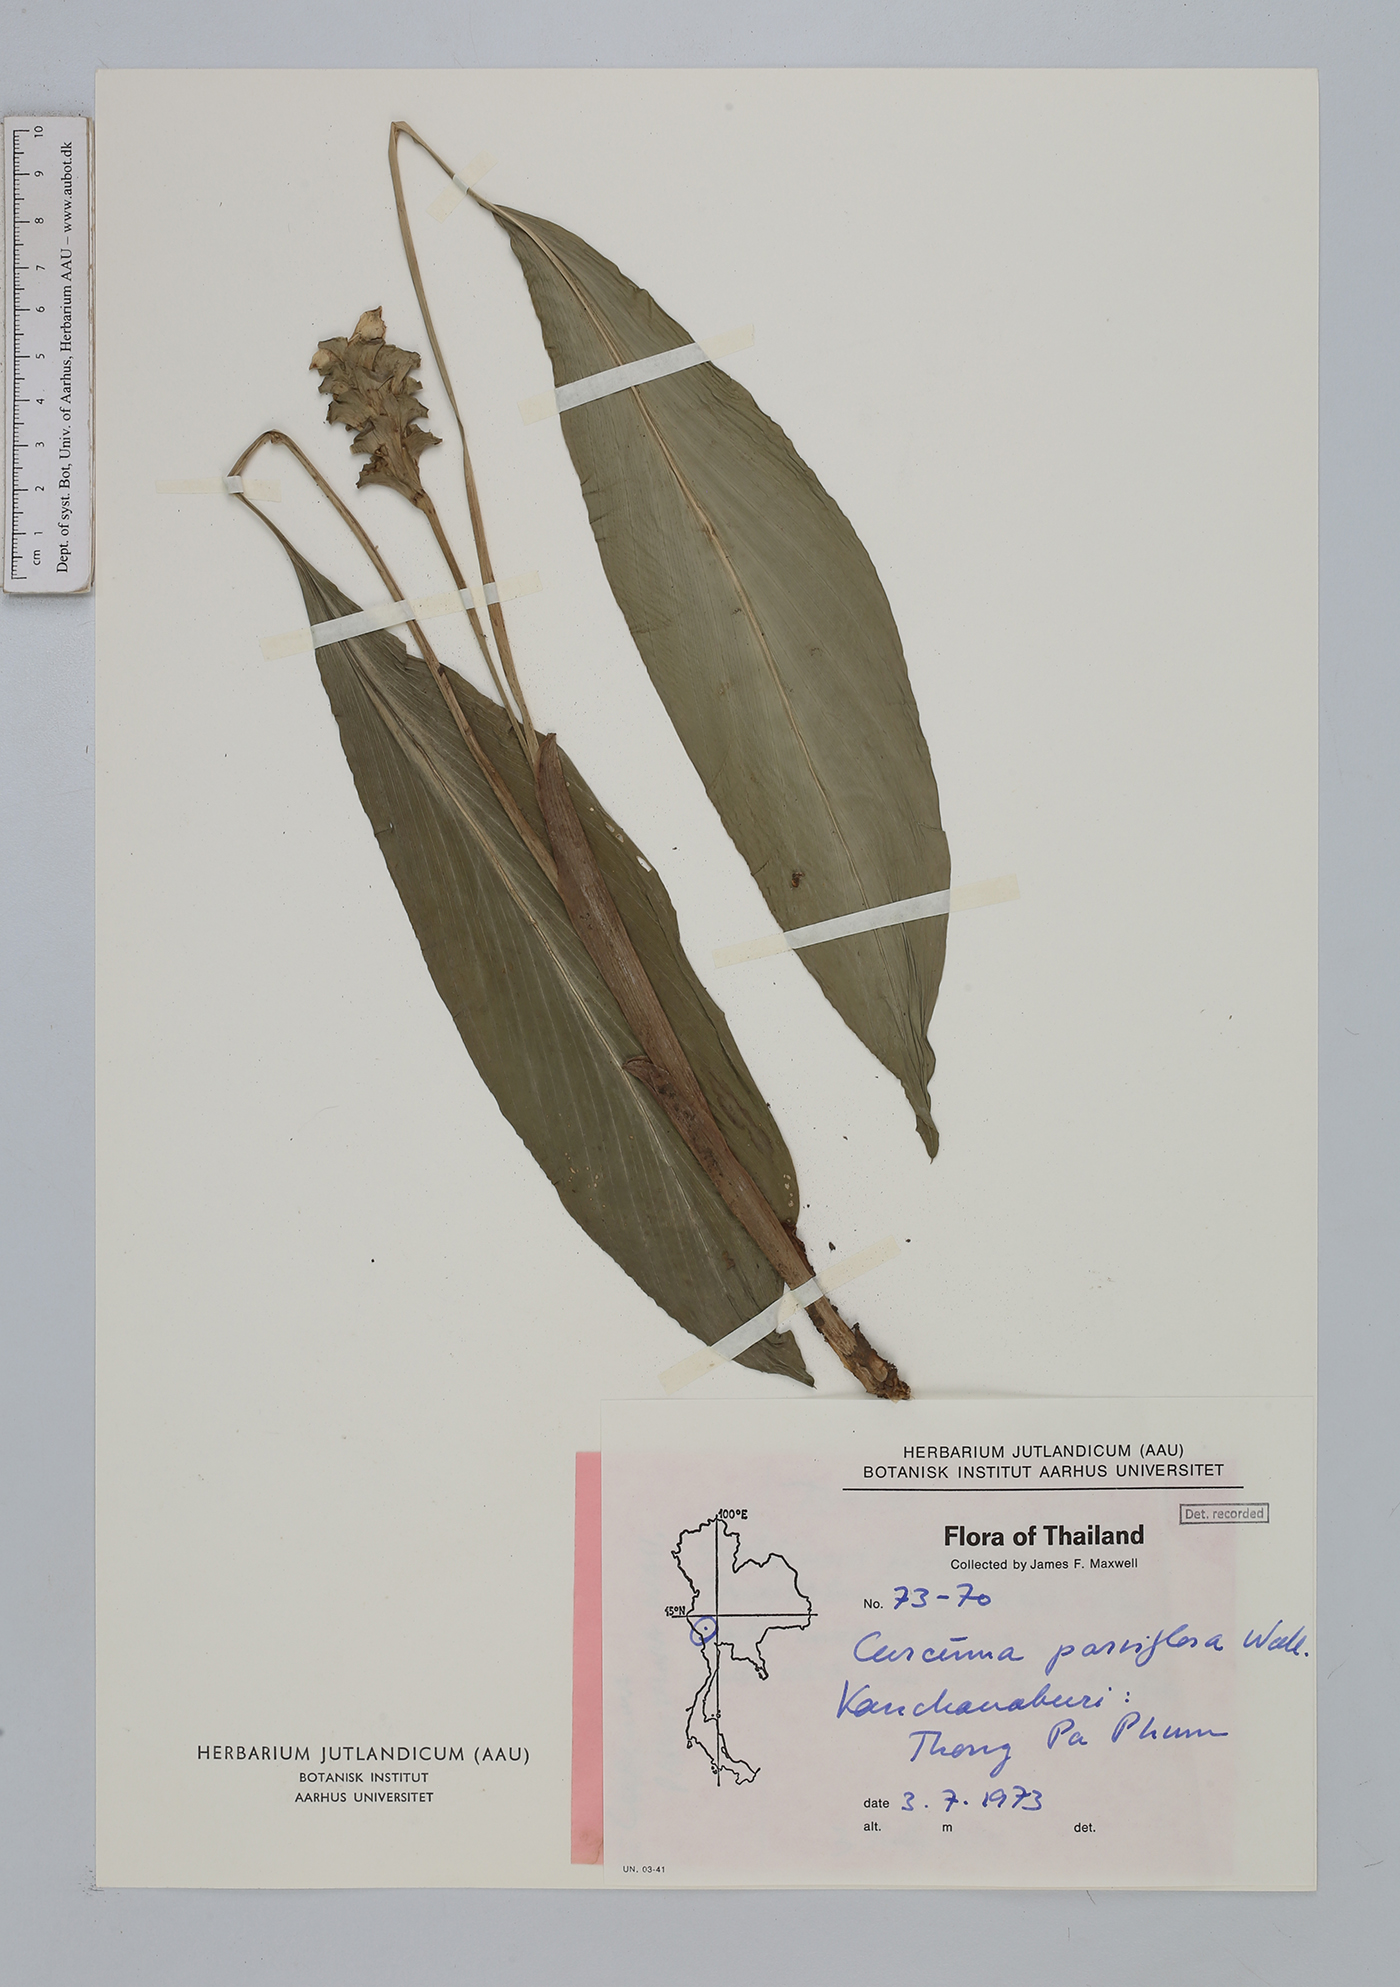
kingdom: Plantae
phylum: Tracheophyta
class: Liliopsida
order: Zingiberales
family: Zingiberaceae
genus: Curcuma
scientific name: Curcuma parviflora
